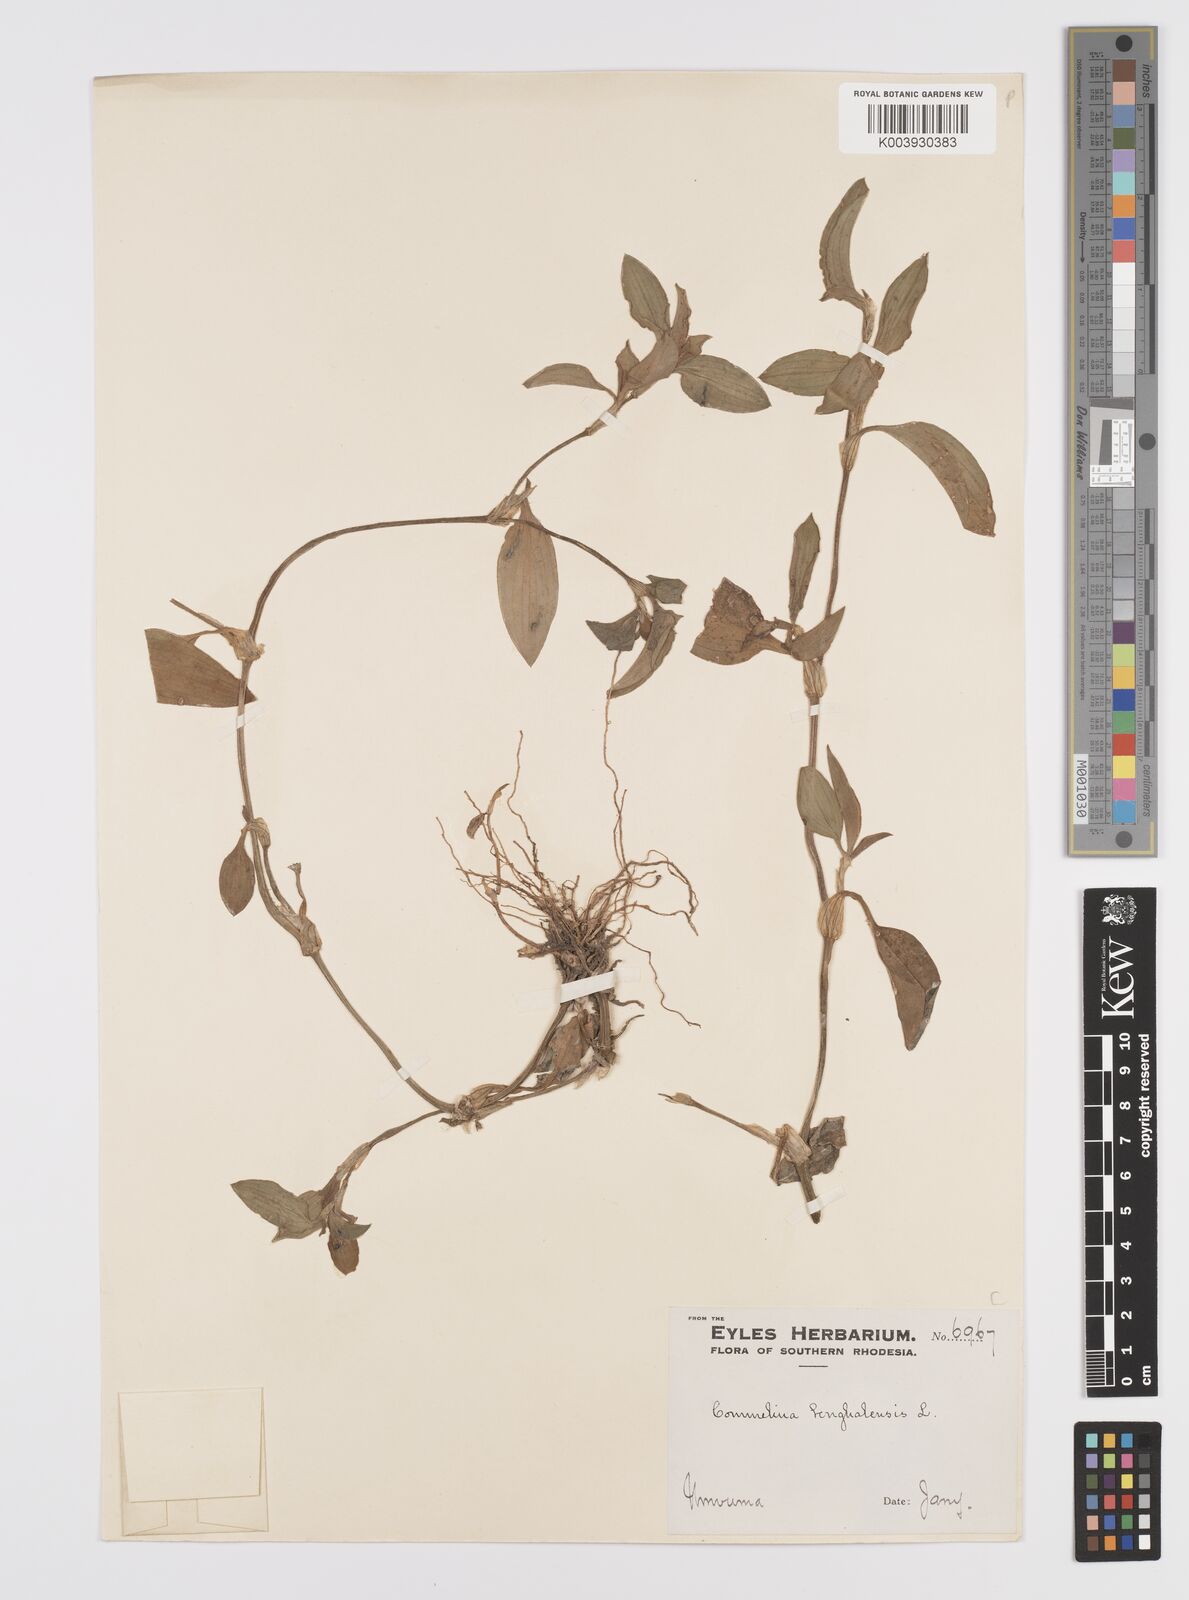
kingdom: Plantae
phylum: Tracheophyta
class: Liliopsida
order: Commelinales
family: Commelinaceae
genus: Commelina
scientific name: Commelina benghalensis
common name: Jio
